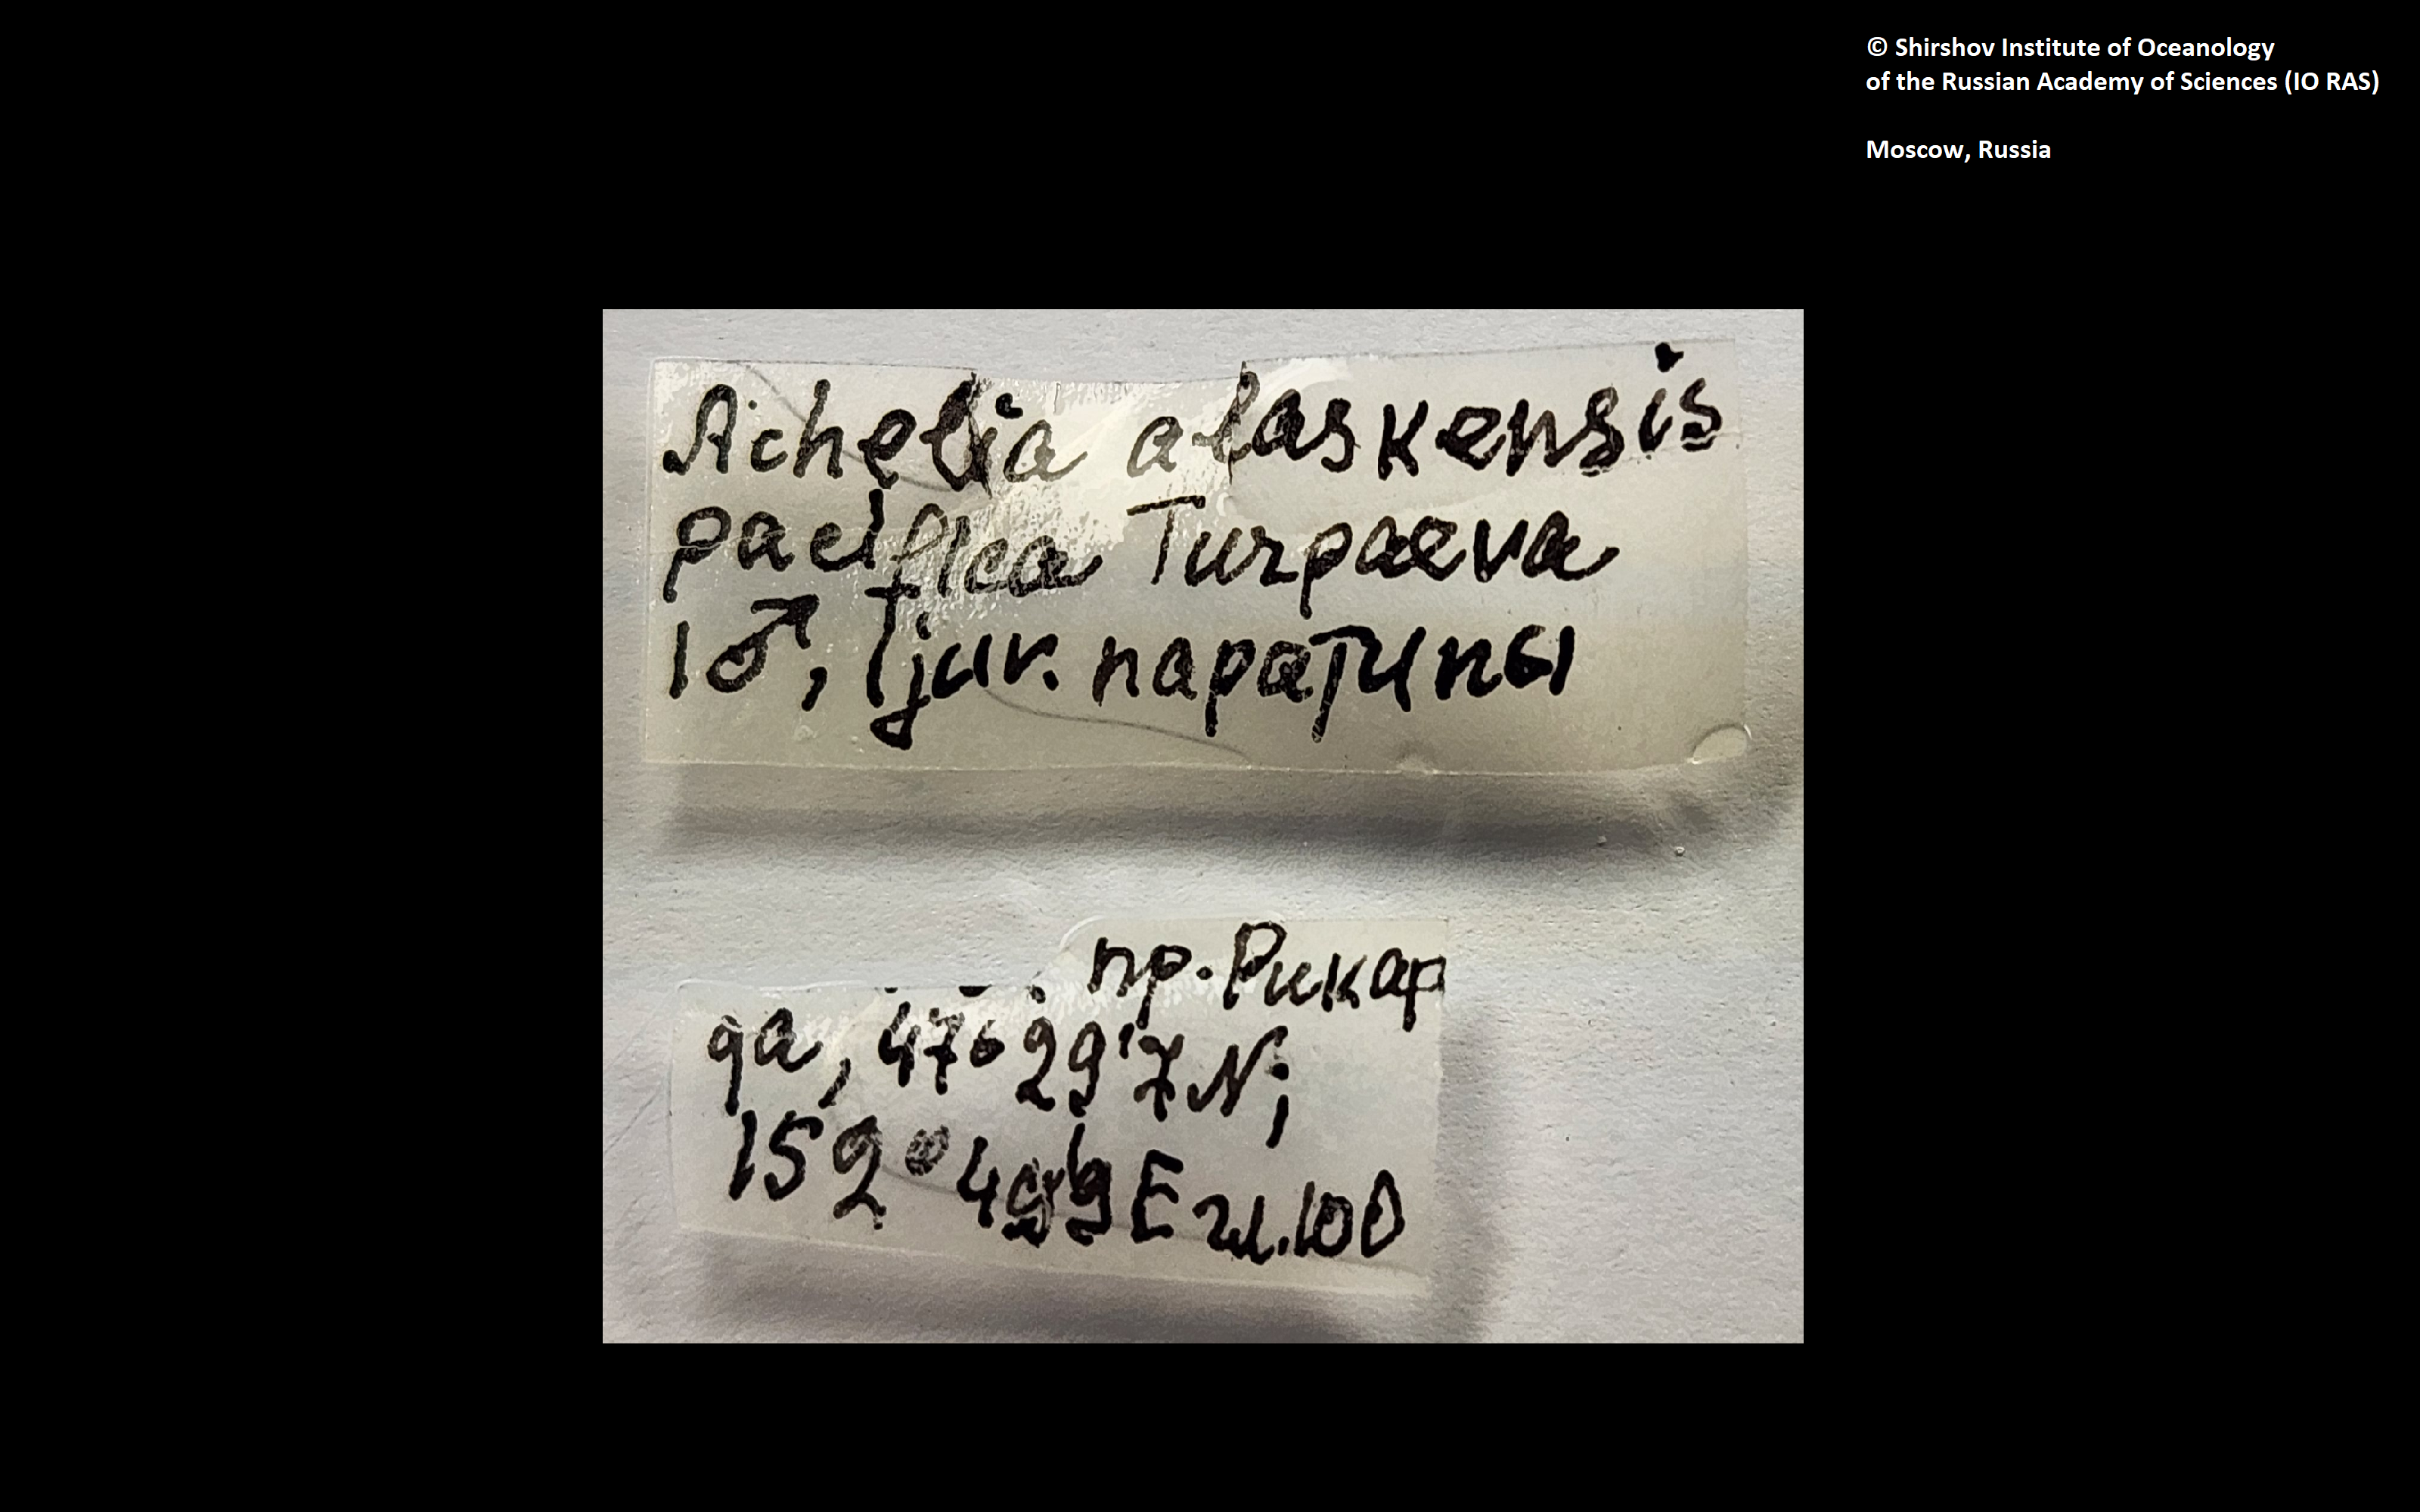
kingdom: Animalia
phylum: Arthropoda
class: Pycnogonida
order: Pantopoda
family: Ammotheidae
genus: Achelia
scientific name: Achelia alaskensis
